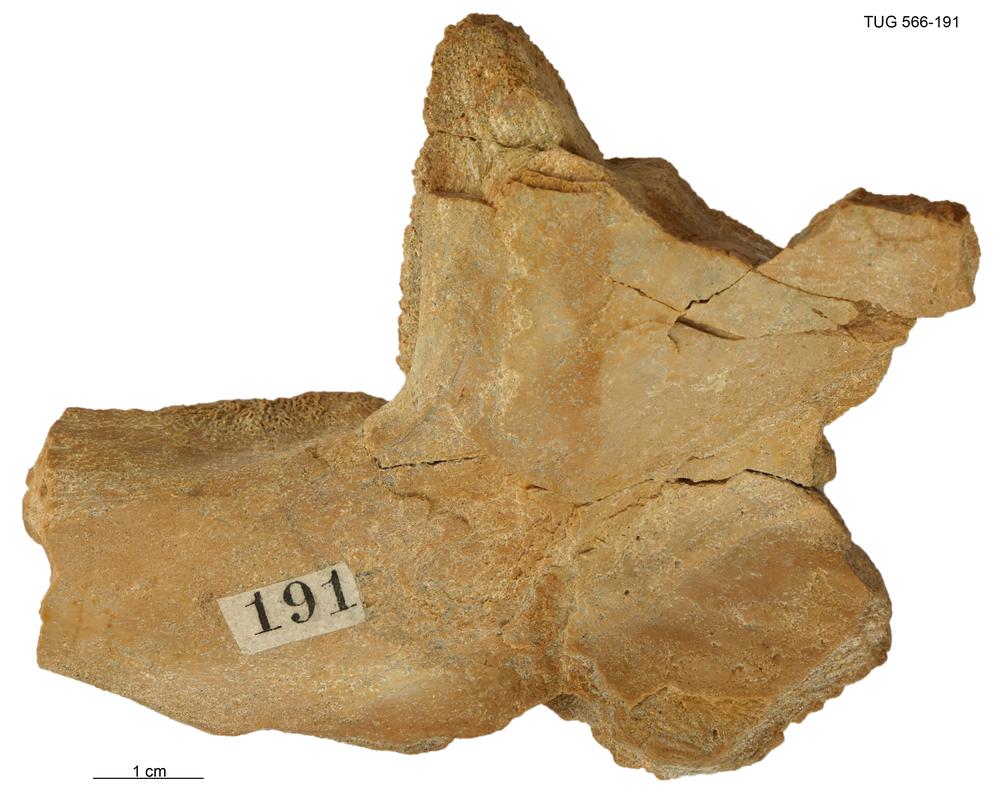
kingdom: Animalia
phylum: Chordata
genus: Homosteus
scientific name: Homosteus sulcatus
